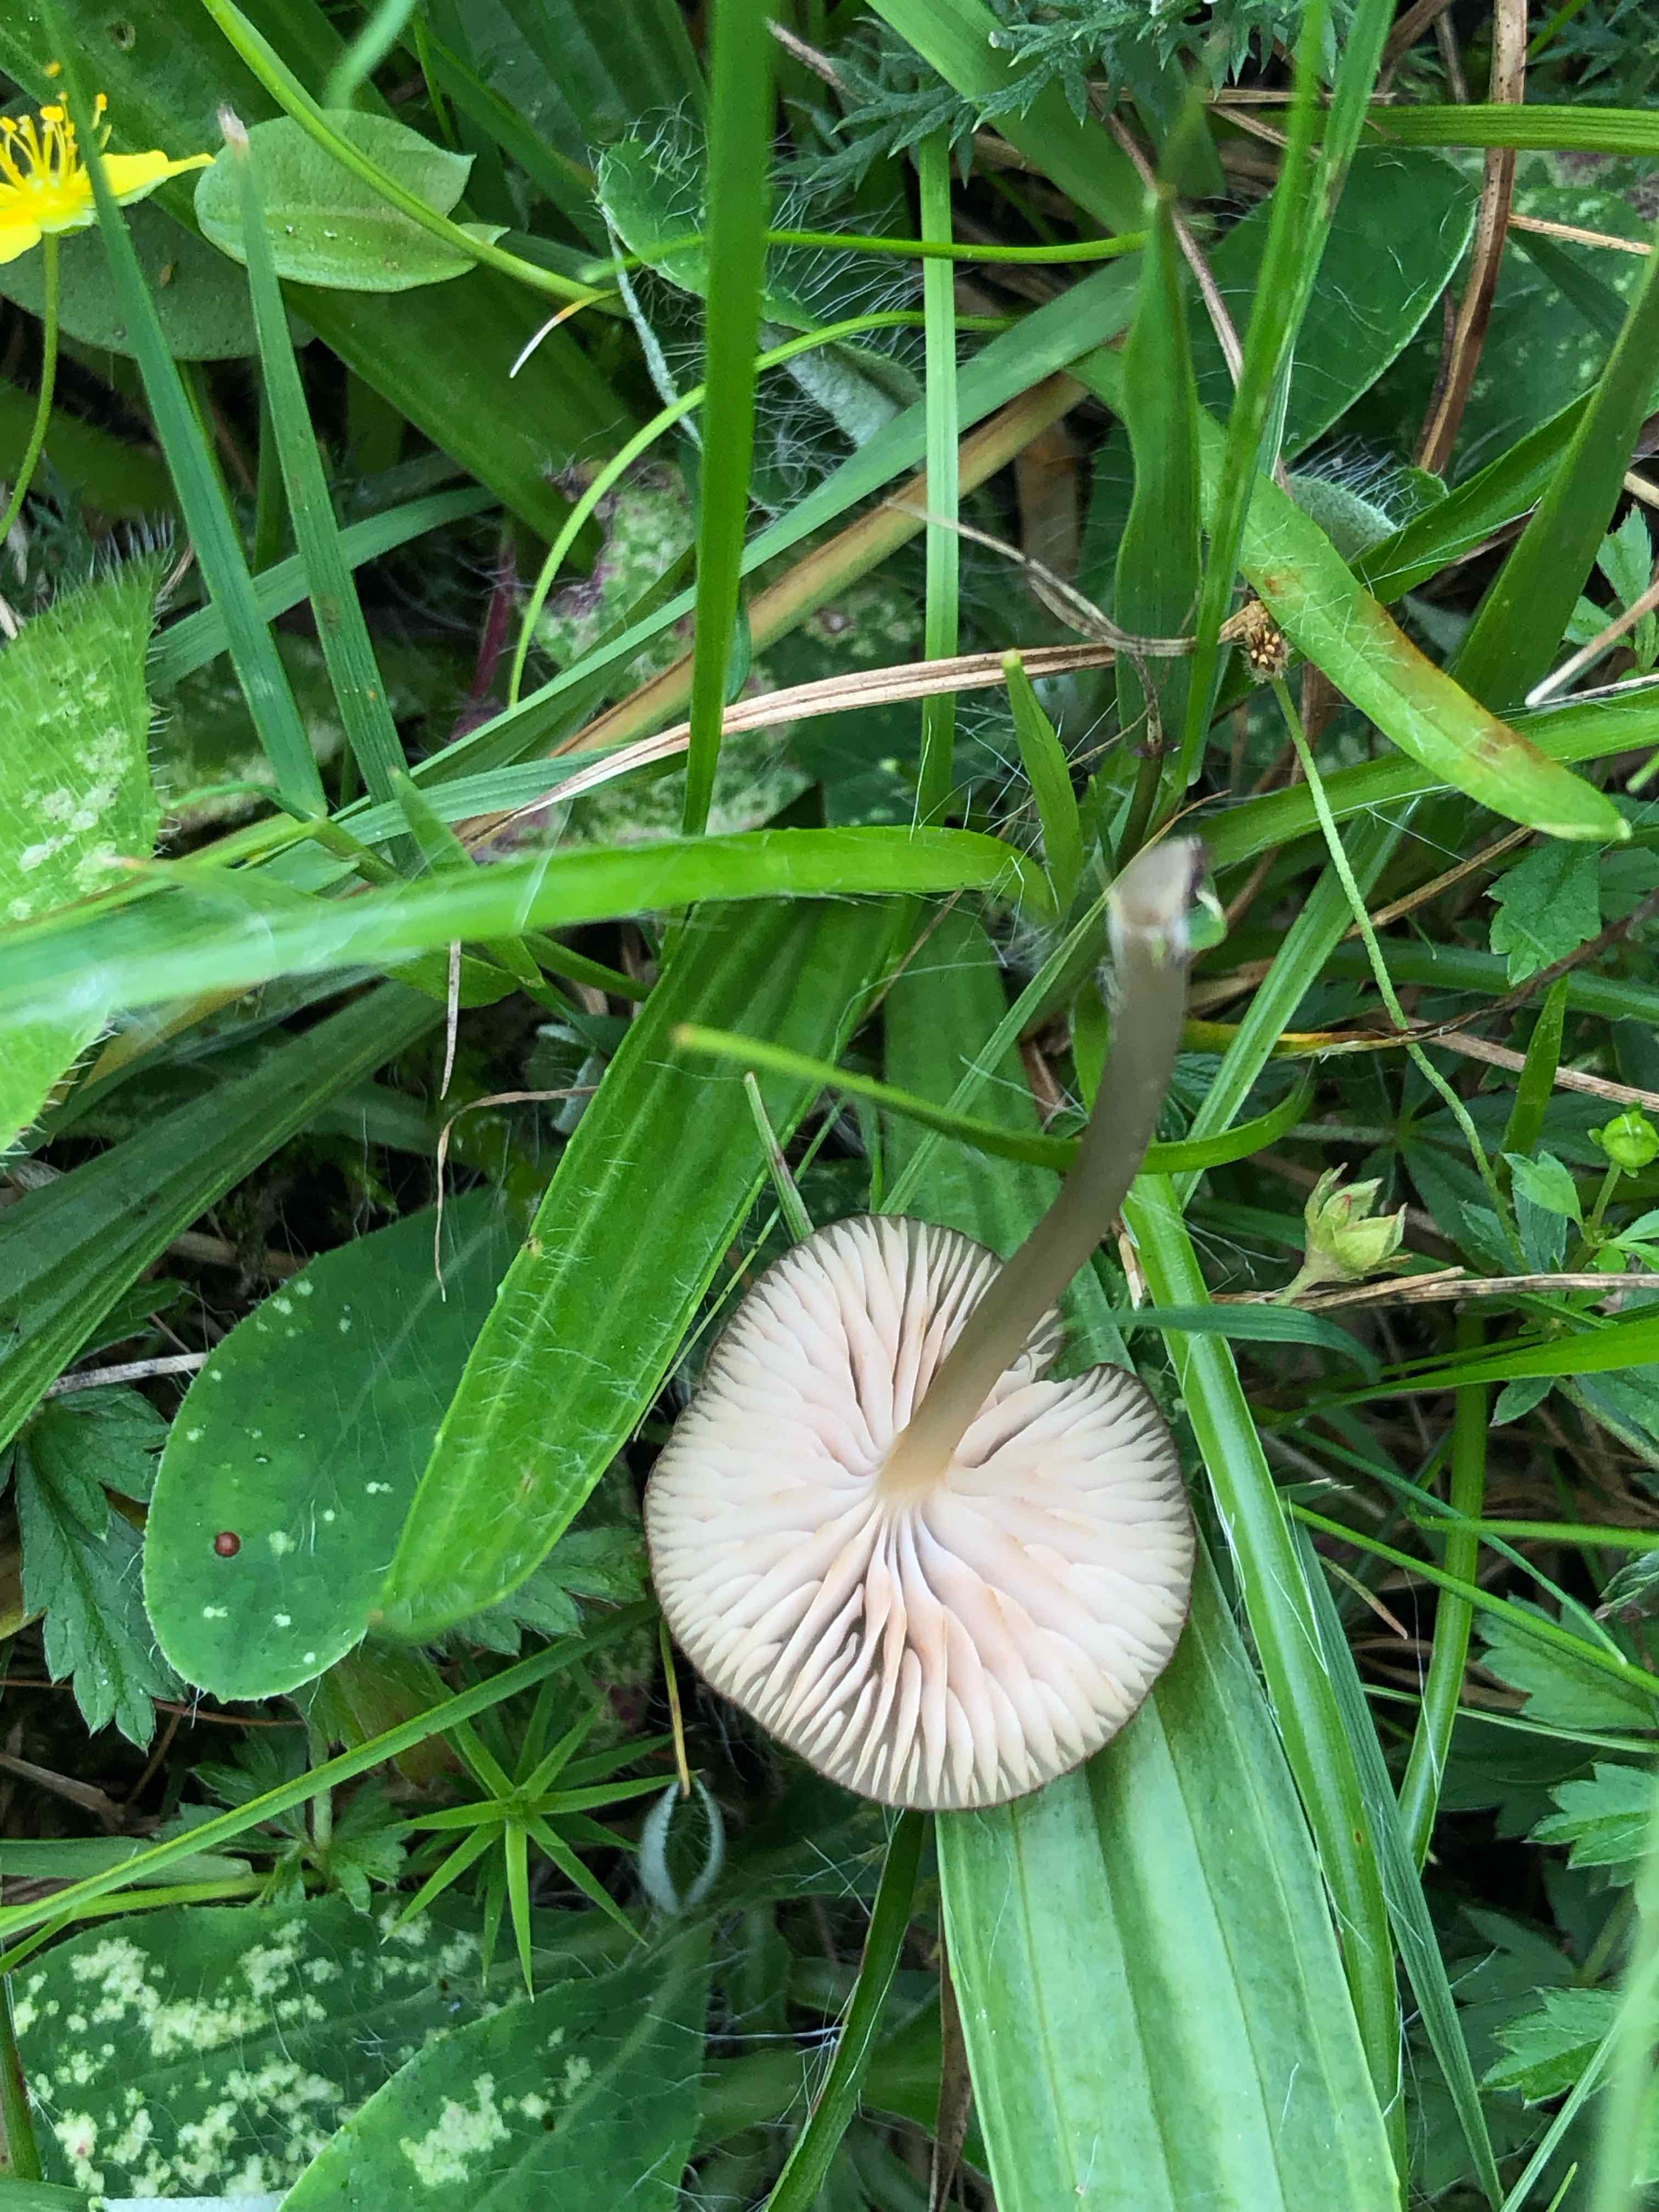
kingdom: Fungi
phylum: Basidiomycota
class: Agaricomycetes
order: Agaricales
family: Entolomataceae
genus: Entoloma
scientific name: Entoloma exile
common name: rødplettet rødblad
